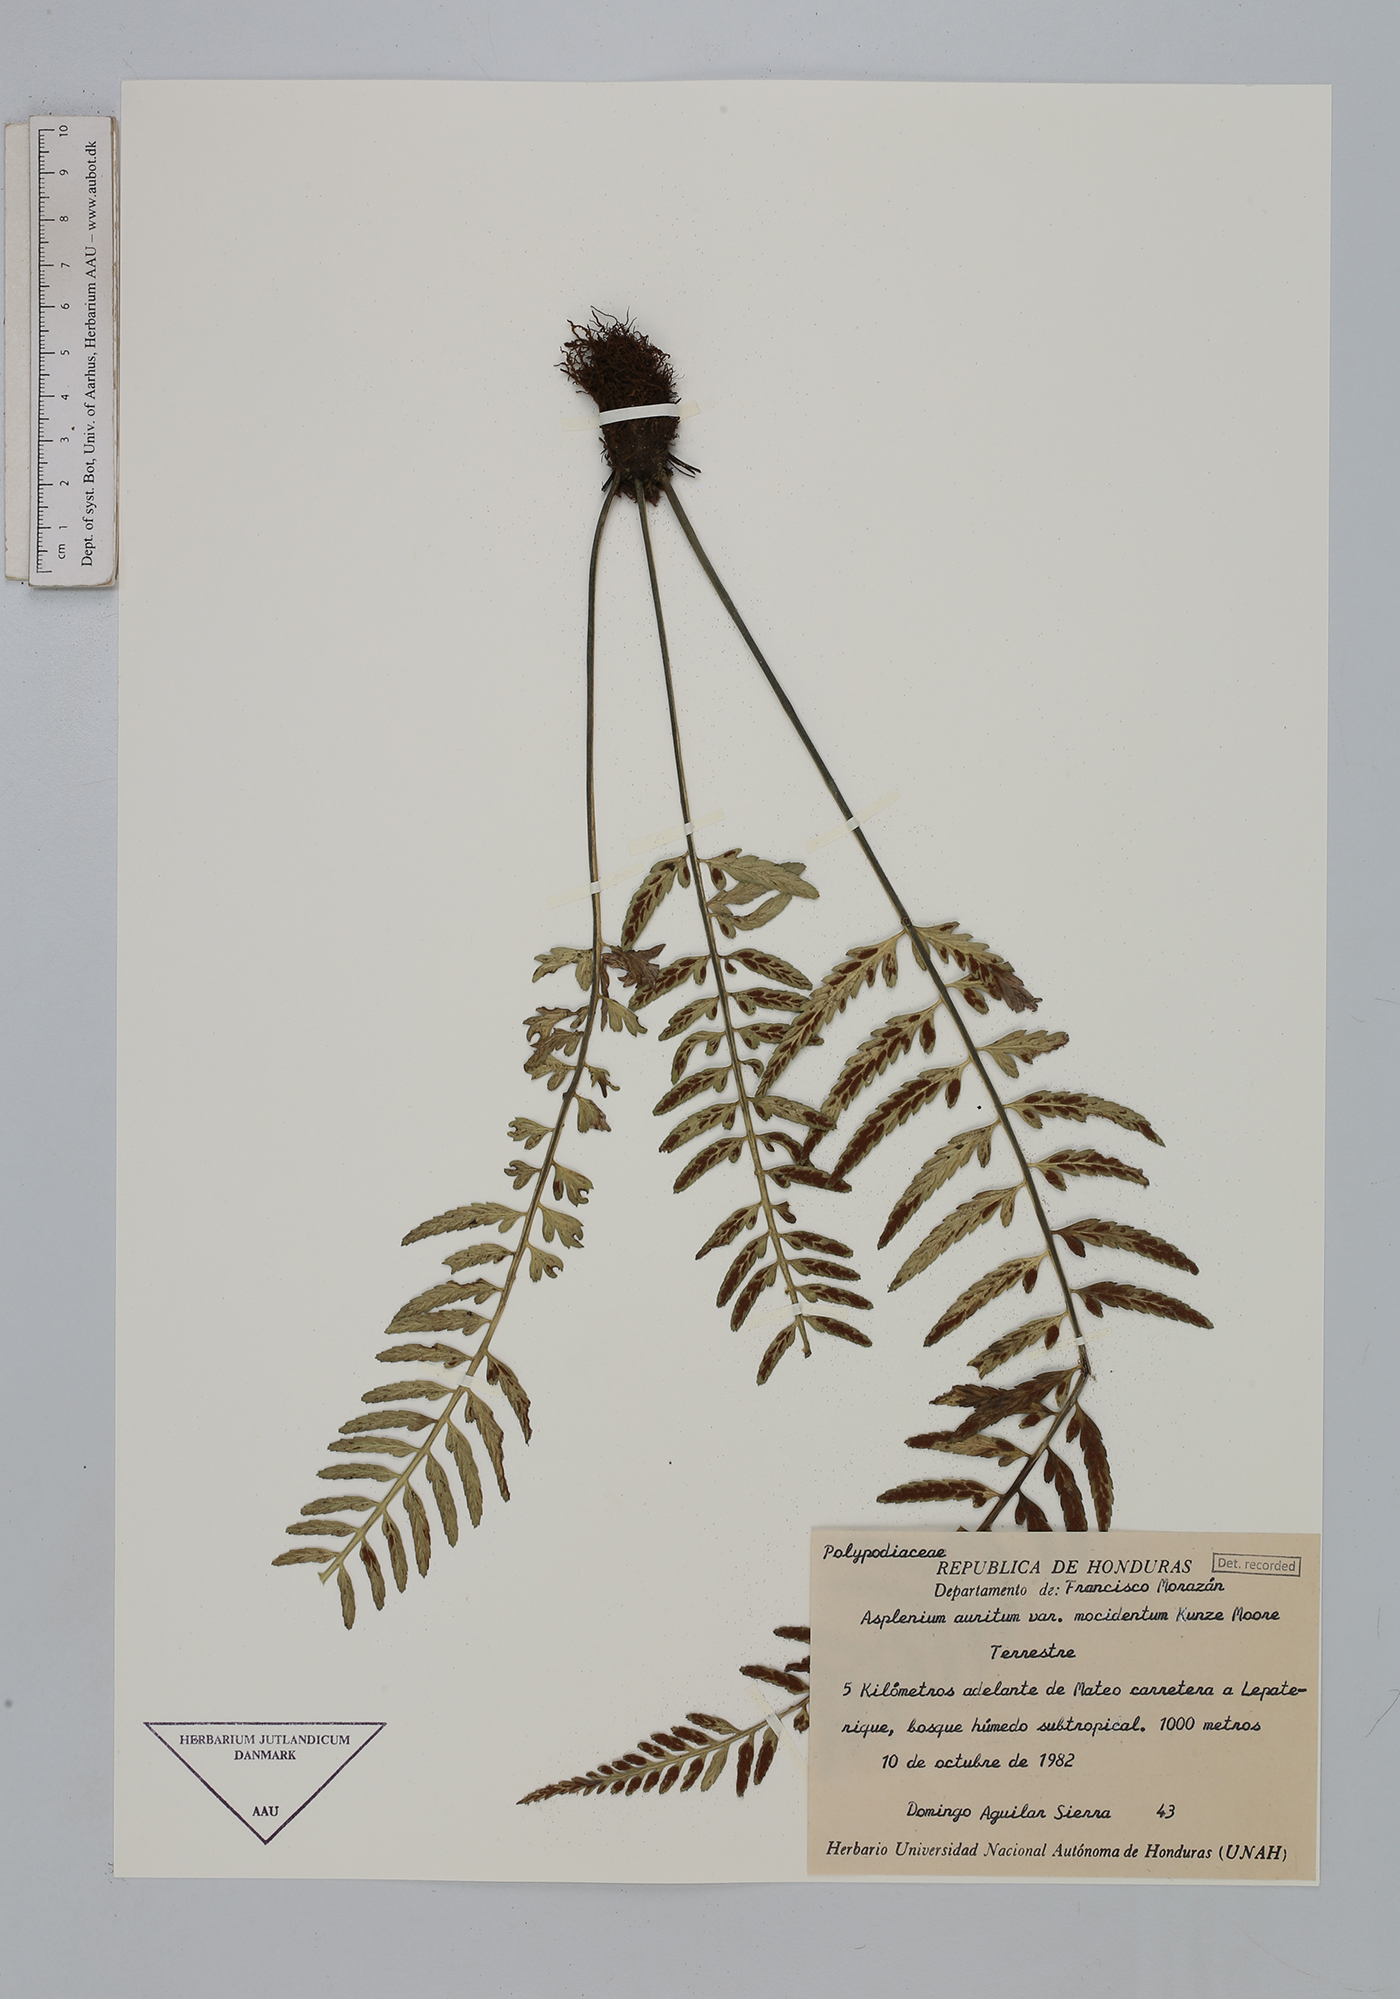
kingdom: Plantae
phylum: Tracheophyta
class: Polypodiopsida
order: Polypodiales
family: Aspleniaceae
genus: Asplenium
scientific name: Asplenium auritum
